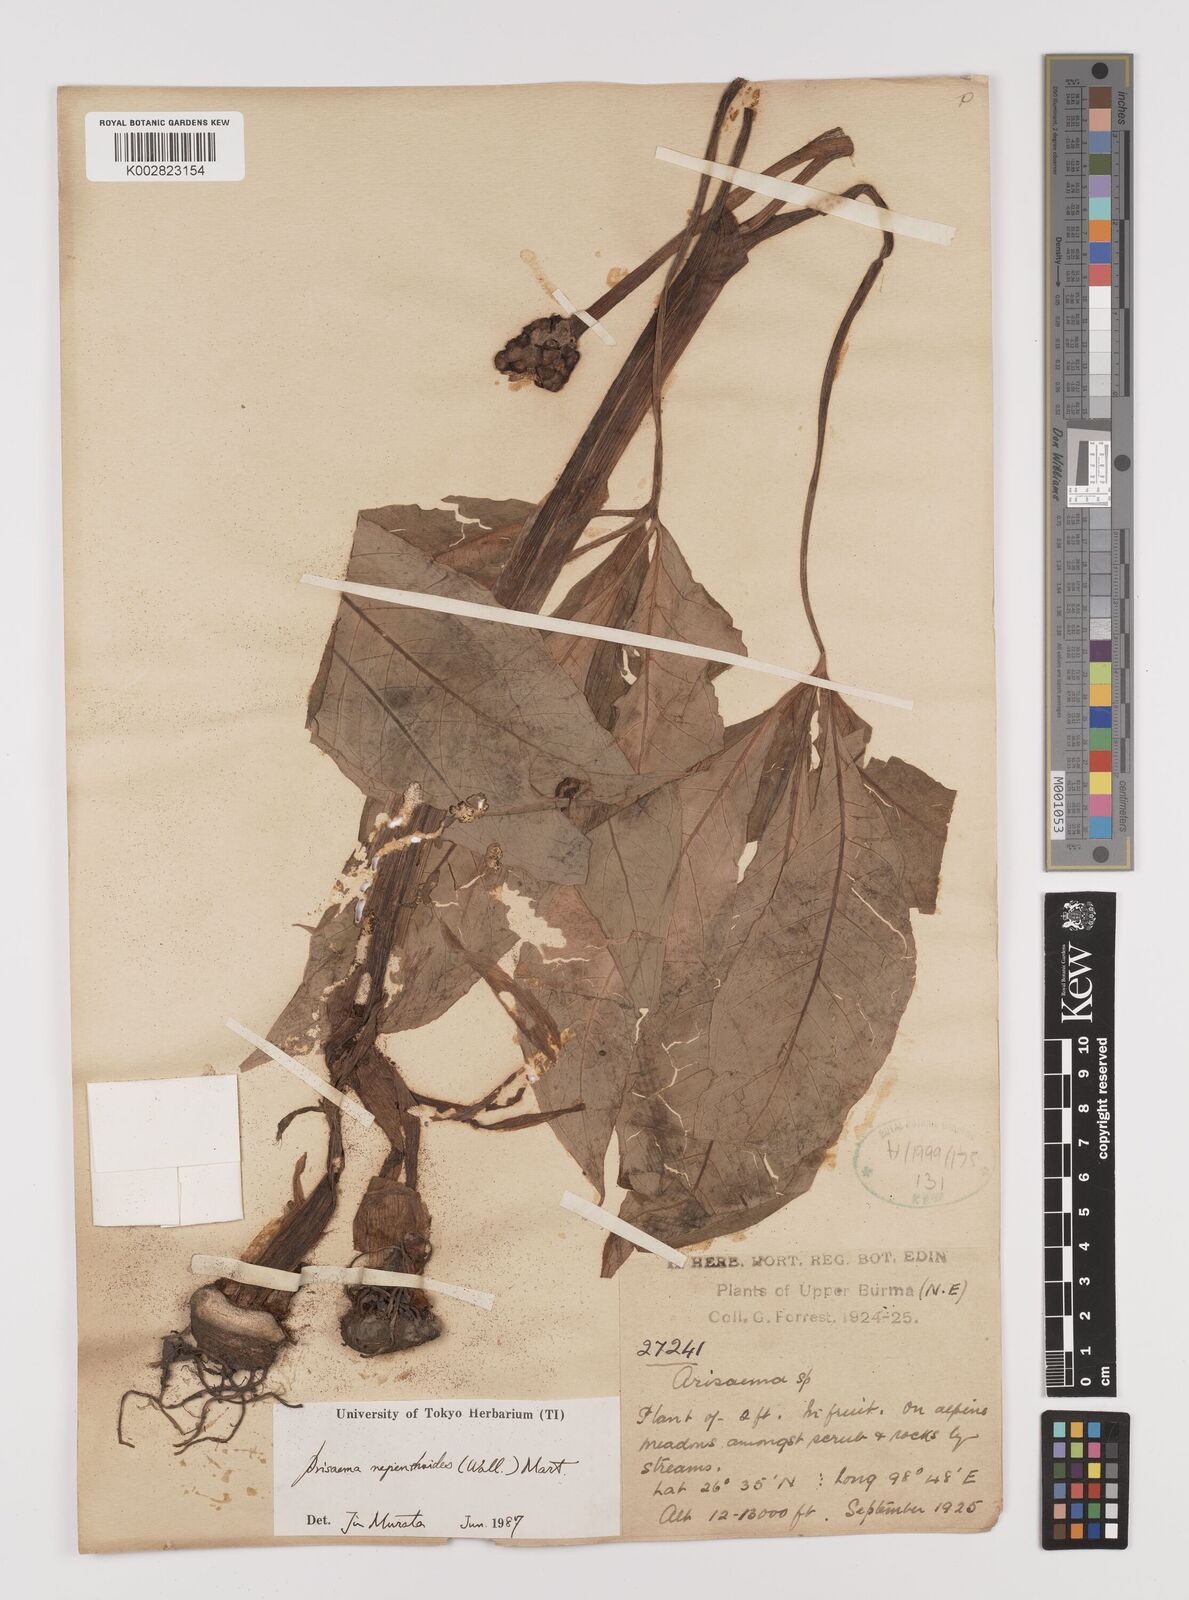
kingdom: Plantae
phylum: Tracheophyta
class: Liliopsida
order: Alismatales
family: Araceae
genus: Arisaema
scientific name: Arisaema nepenthoides
